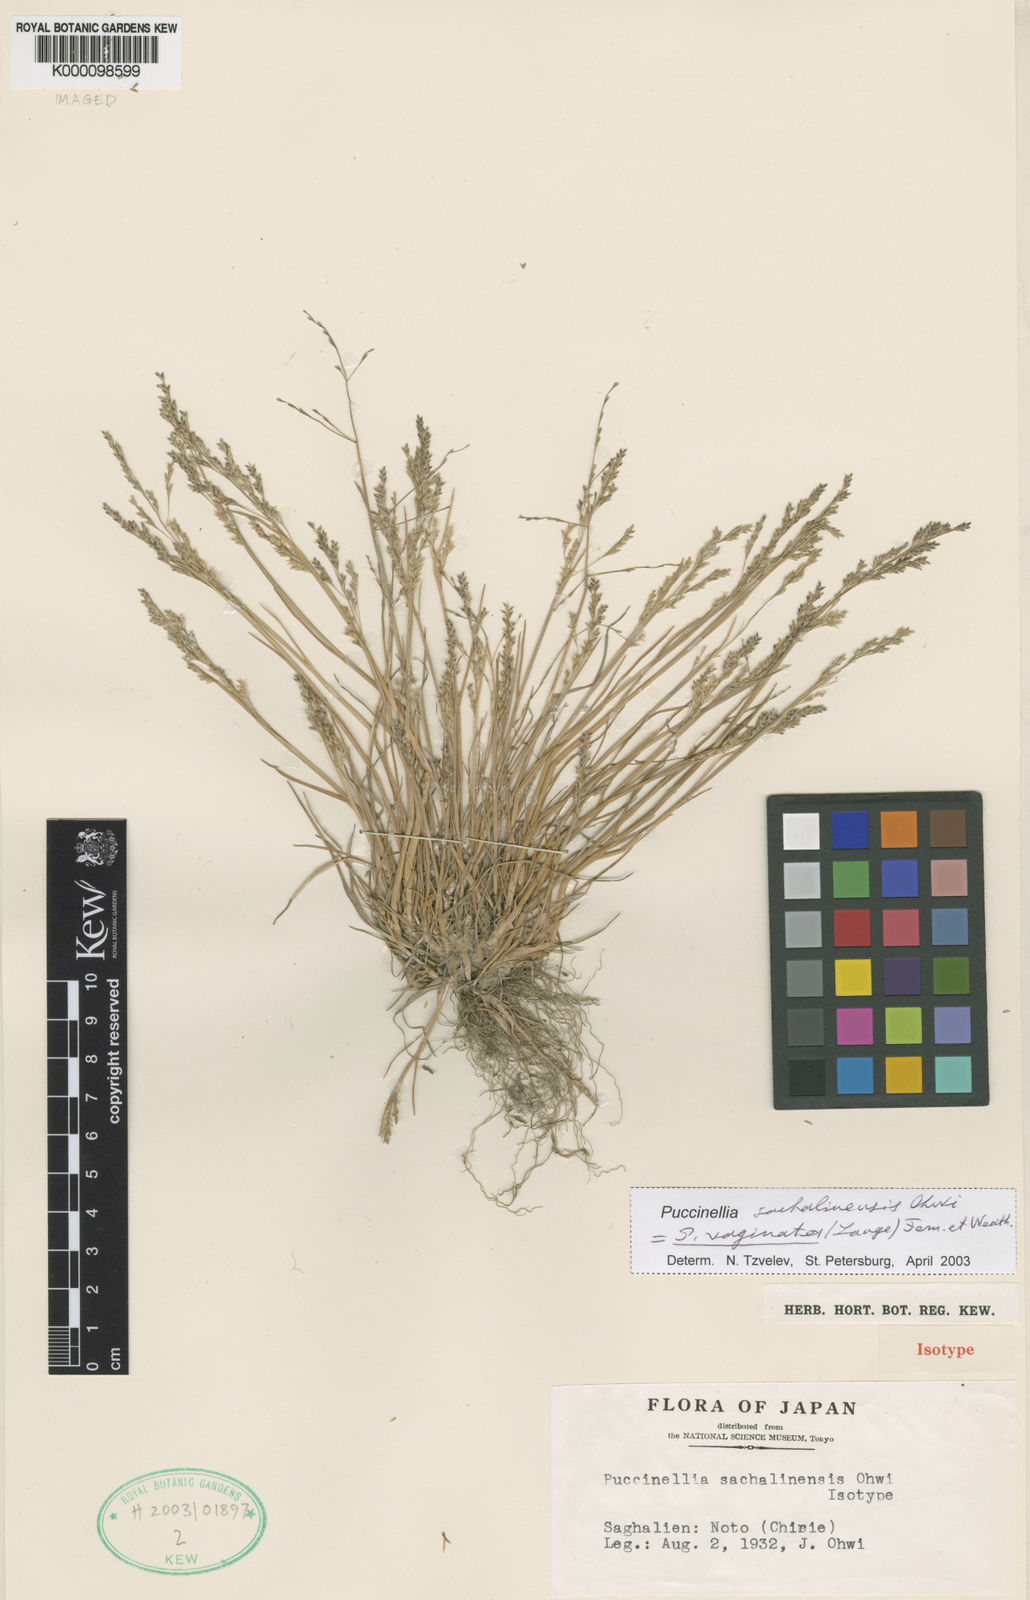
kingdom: Plantae
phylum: Tracheophyta
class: Liliopsida
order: Poales
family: Poaceae
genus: Puccinellia
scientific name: Puccinellia vaginata
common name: Arctic tussock alkaligrass
